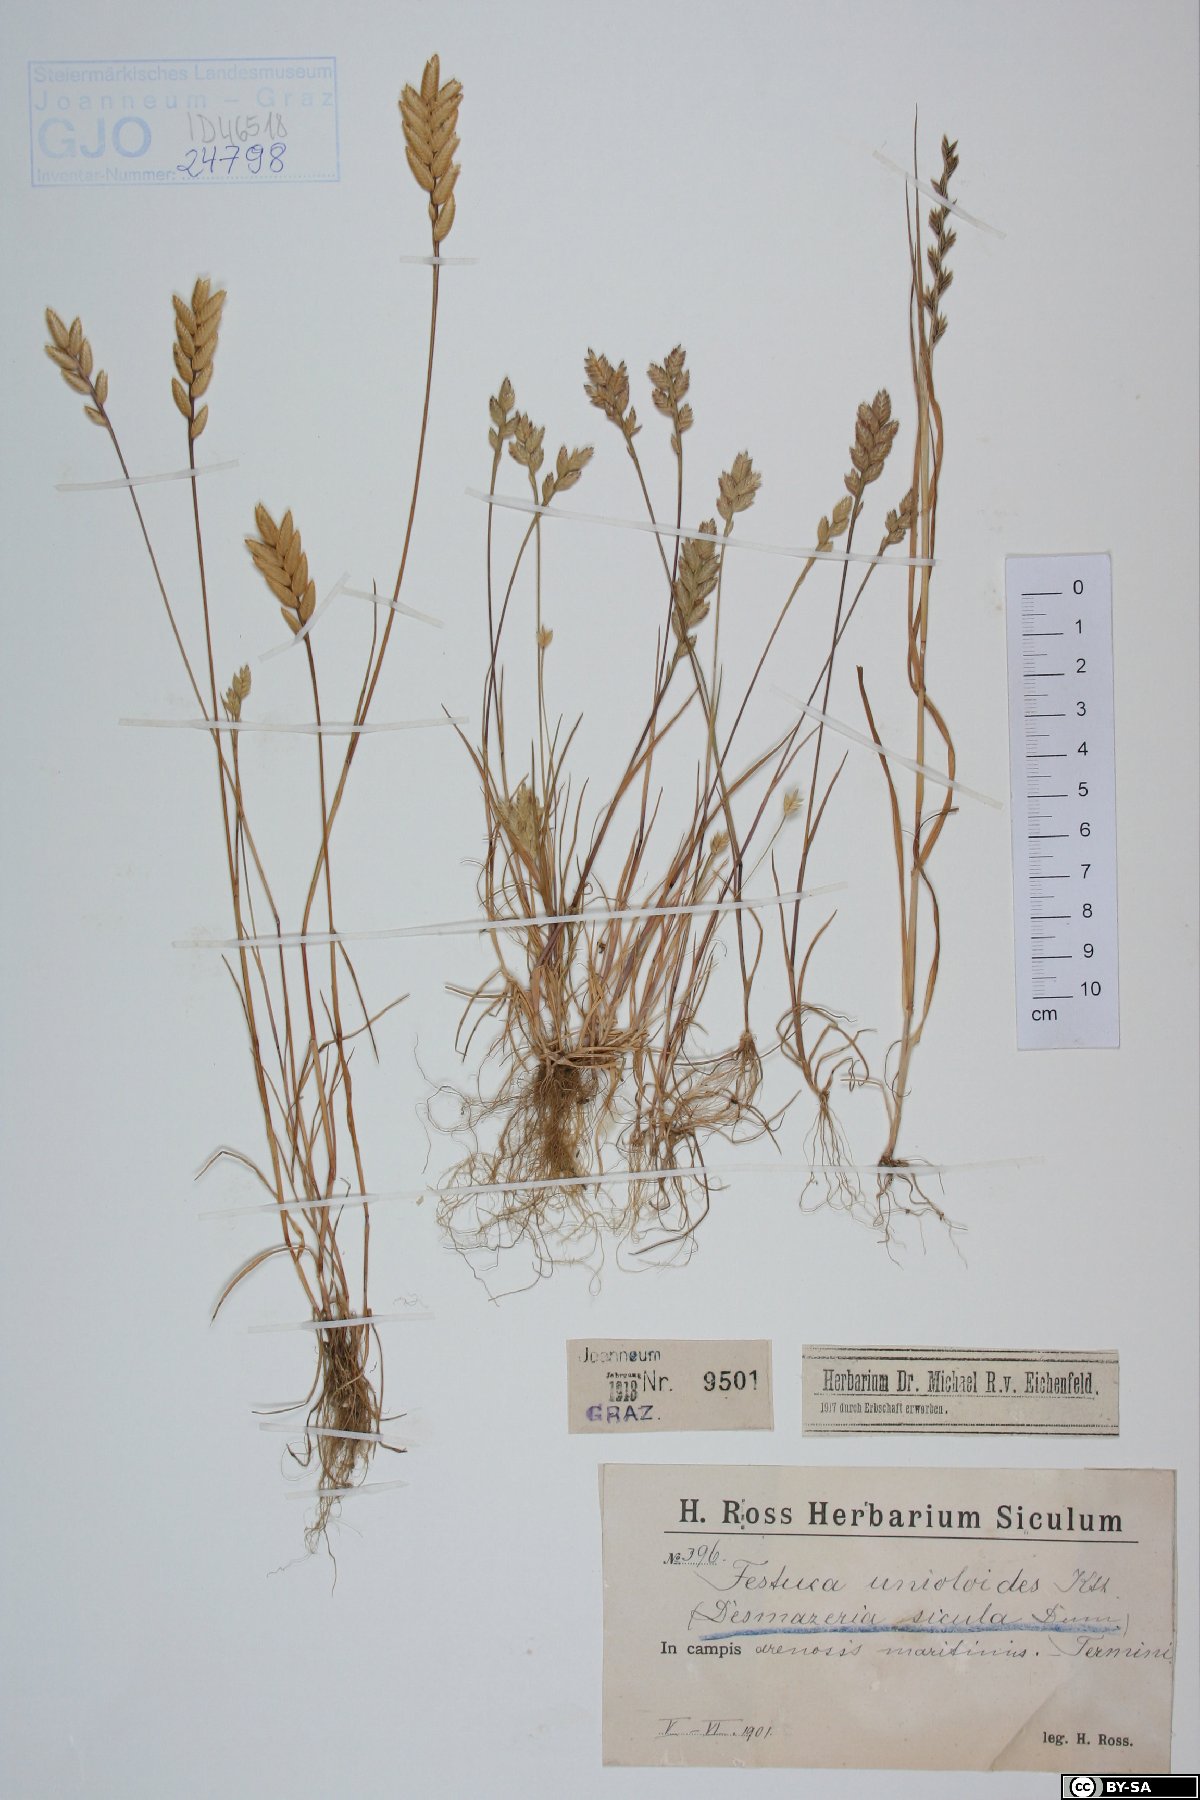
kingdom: Plantae
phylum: Tracheophyta
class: Liliopsida
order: Poales
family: Poaceae
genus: Desmazeria
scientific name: Desmazeria sicula
